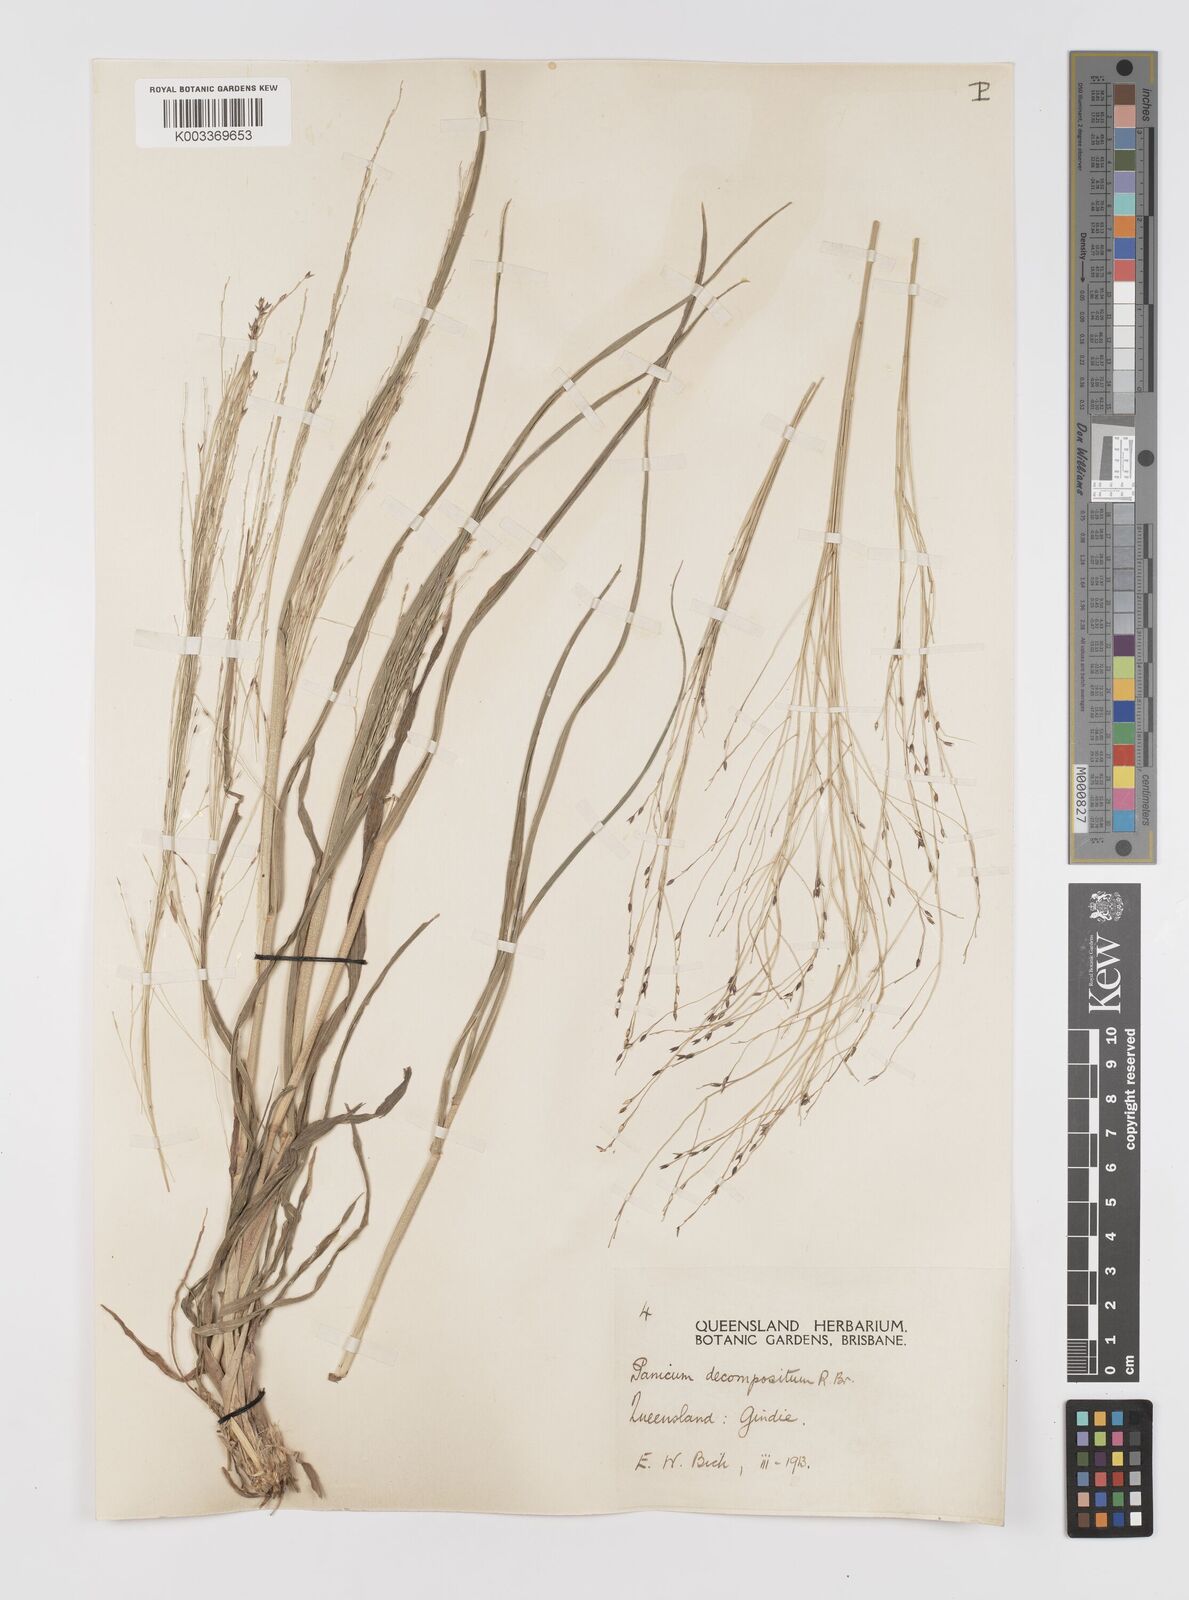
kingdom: Plantae
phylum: Tracheophyta
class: Liliopsida
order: Poales
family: Poaceae
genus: Panicum
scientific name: Panicum decompositum
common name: Australian millet
